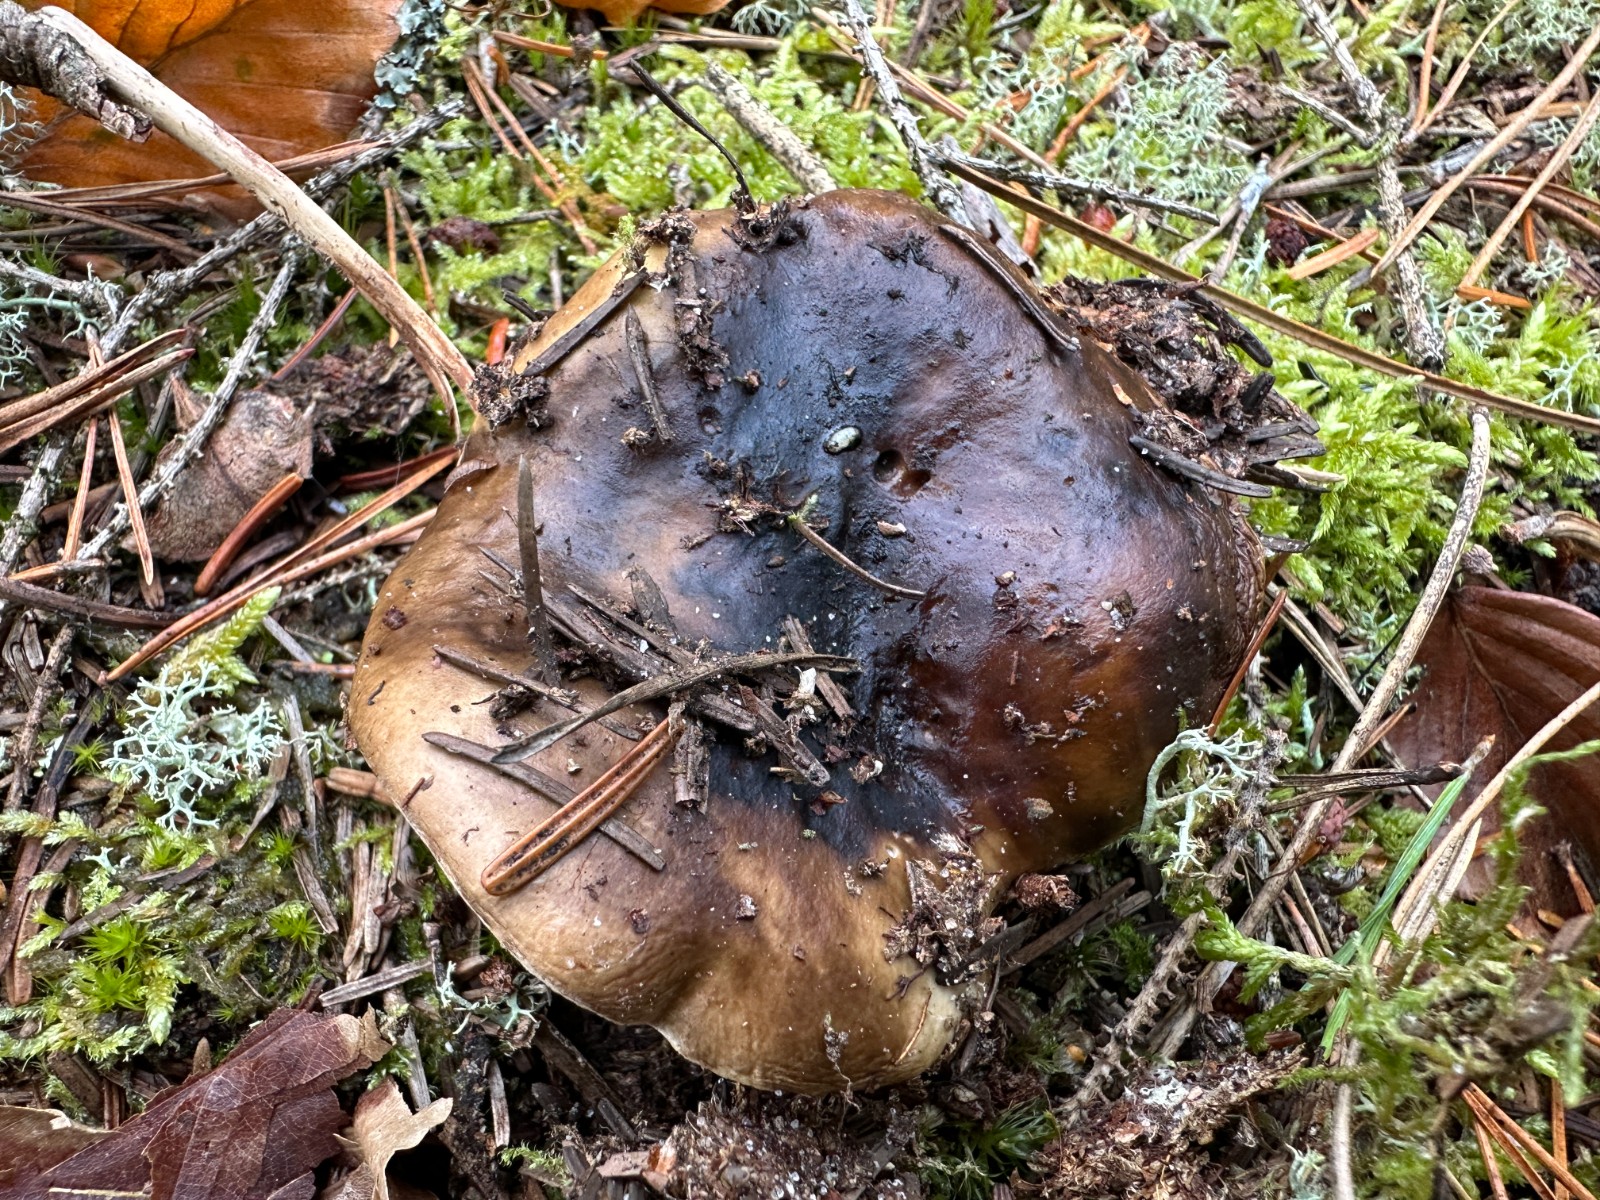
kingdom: Fungi
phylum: Basidiomycota
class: Agaricomycetes
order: Russulales
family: Russulaceae
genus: Russula
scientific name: Russula adusta
